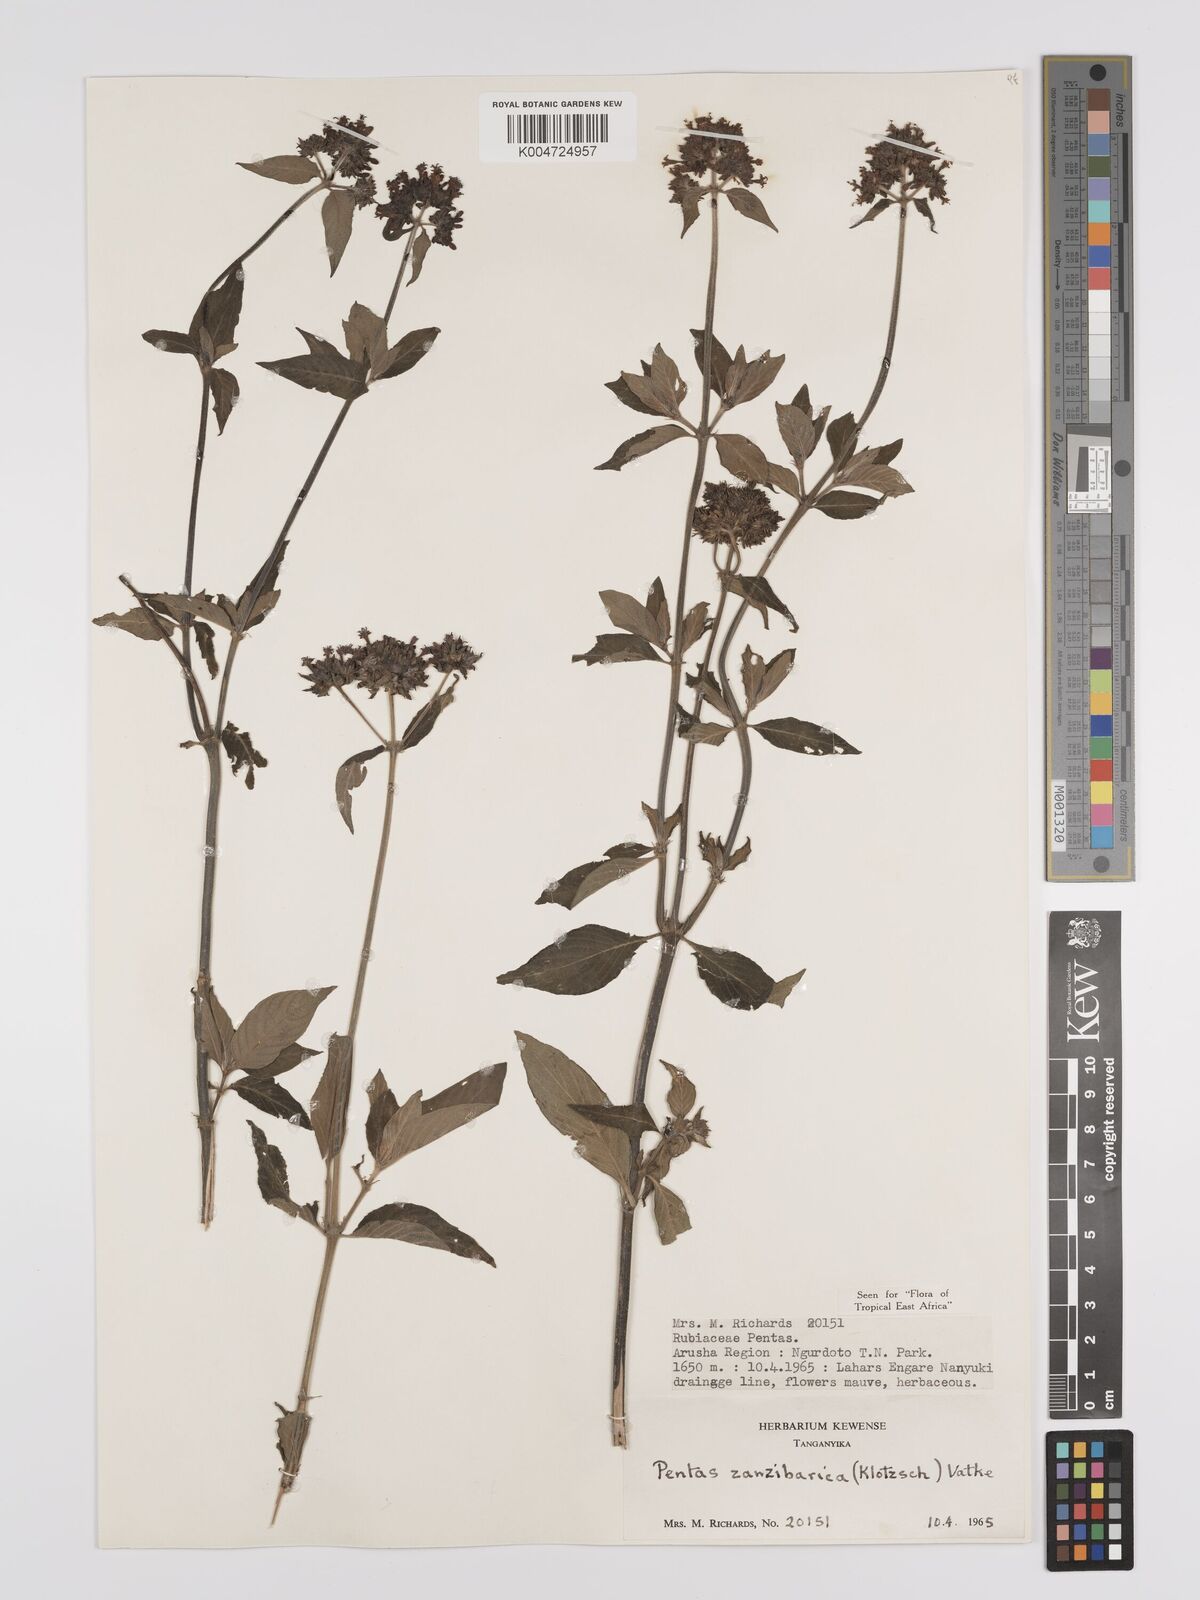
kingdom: Plantae
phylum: Tracheophyta
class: Magnoliopsida
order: Gentianales
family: Rubiaceae
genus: Pentas
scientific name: Pentas zanzibarica
